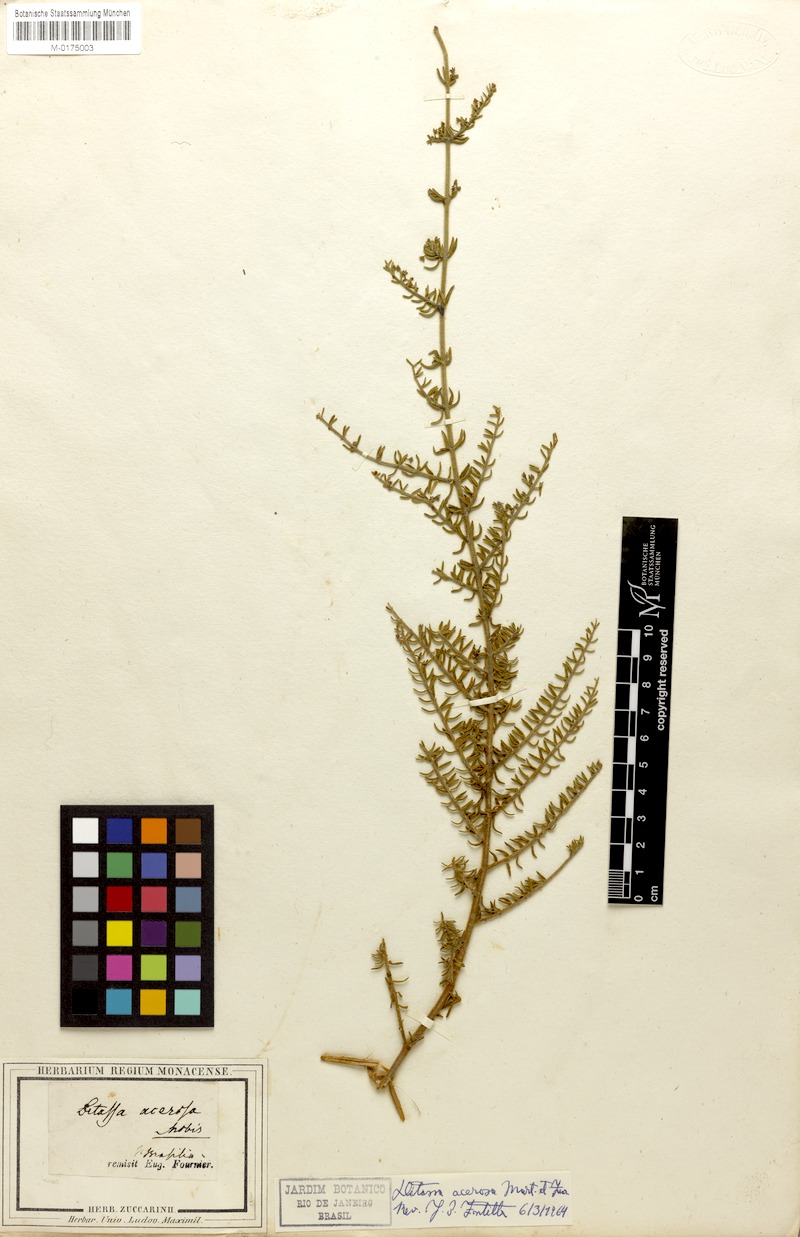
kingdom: Plantae
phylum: Tracheophyta
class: Magnoliopsida
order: Gentianales
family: Apocynaceae
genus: Minaria
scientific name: Minaria acerosa
